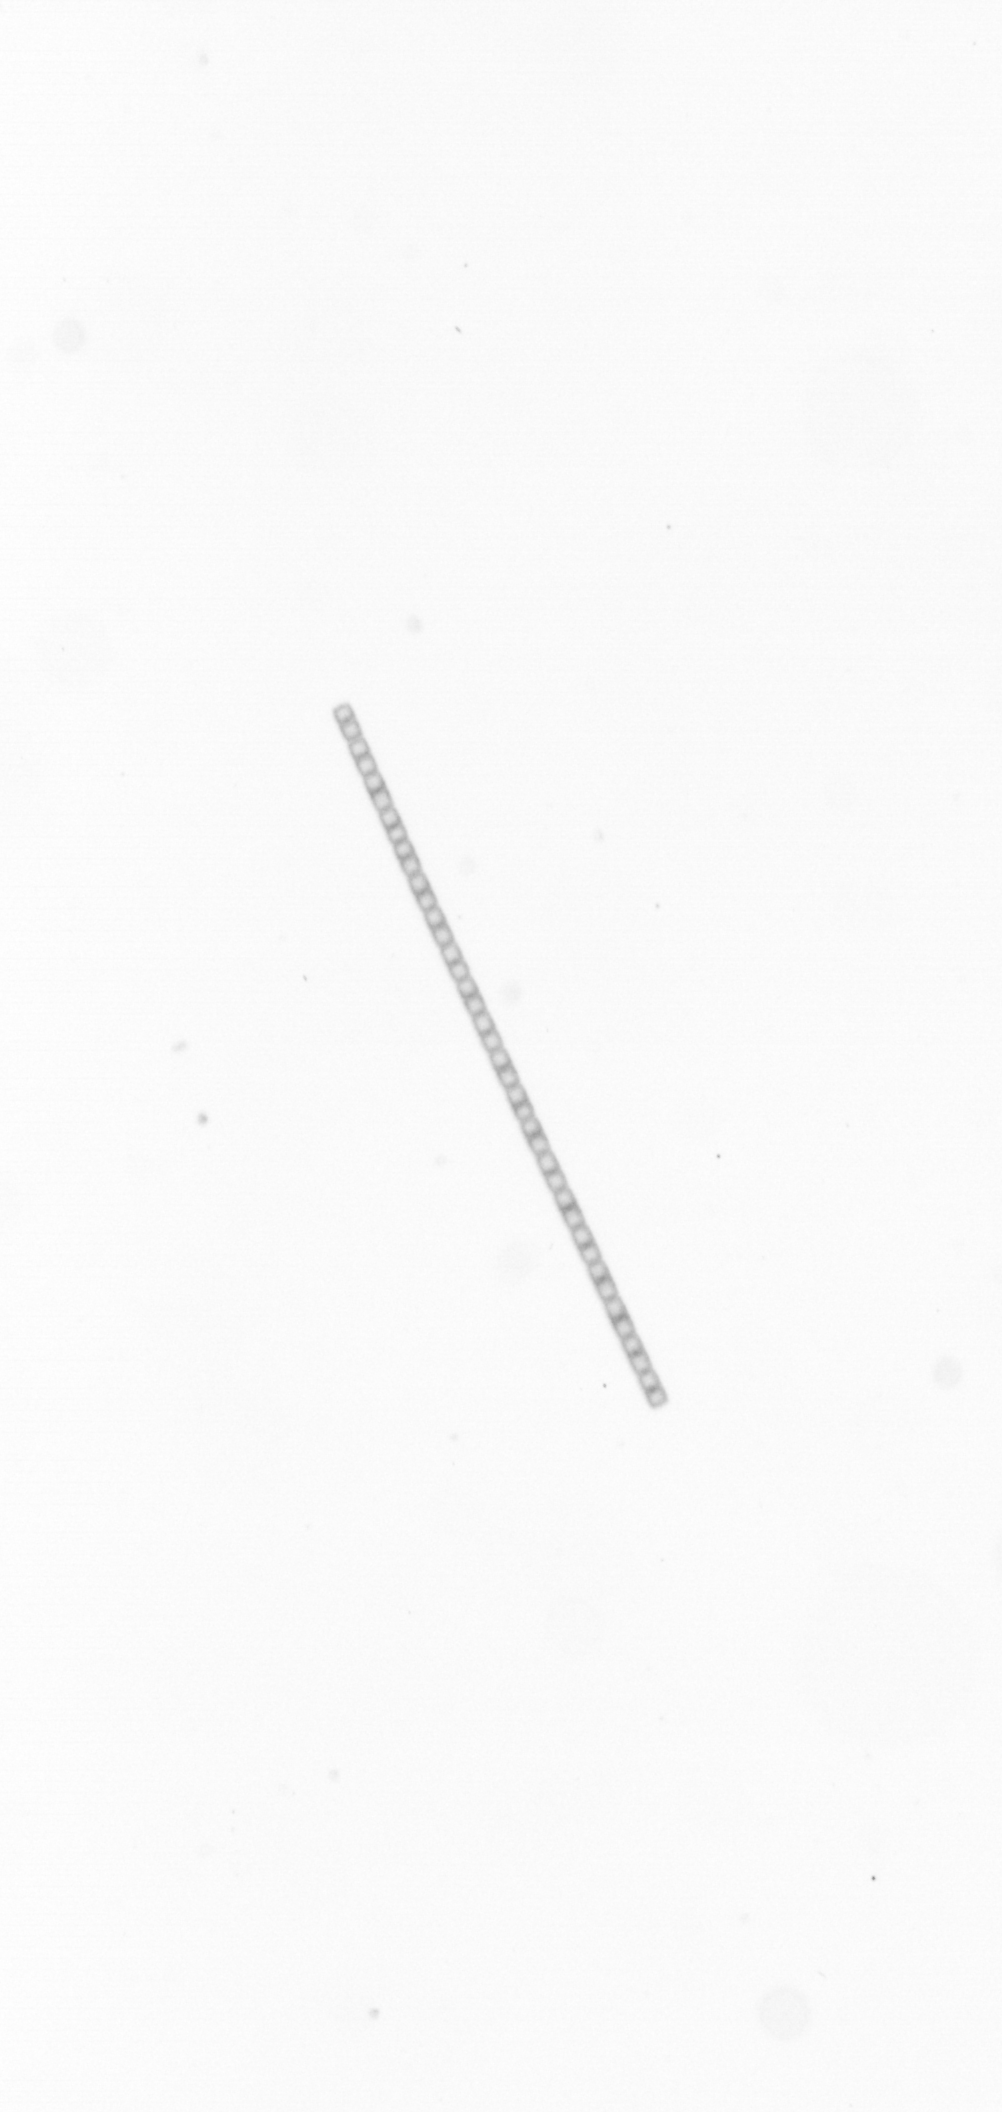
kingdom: Chromista
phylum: Ochrophyta
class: Bacillariophyceae
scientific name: Bacillariophyceae
